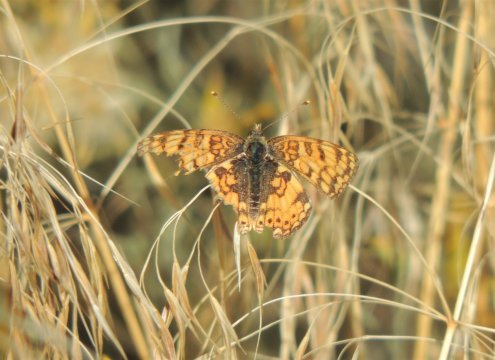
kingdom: Animalia
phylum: Arthropoda
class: Insecta
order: Lepidoptera
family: Nymphalidae
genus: Eresia
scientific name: Eresia aveyrona
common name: Mylitta Crescent
